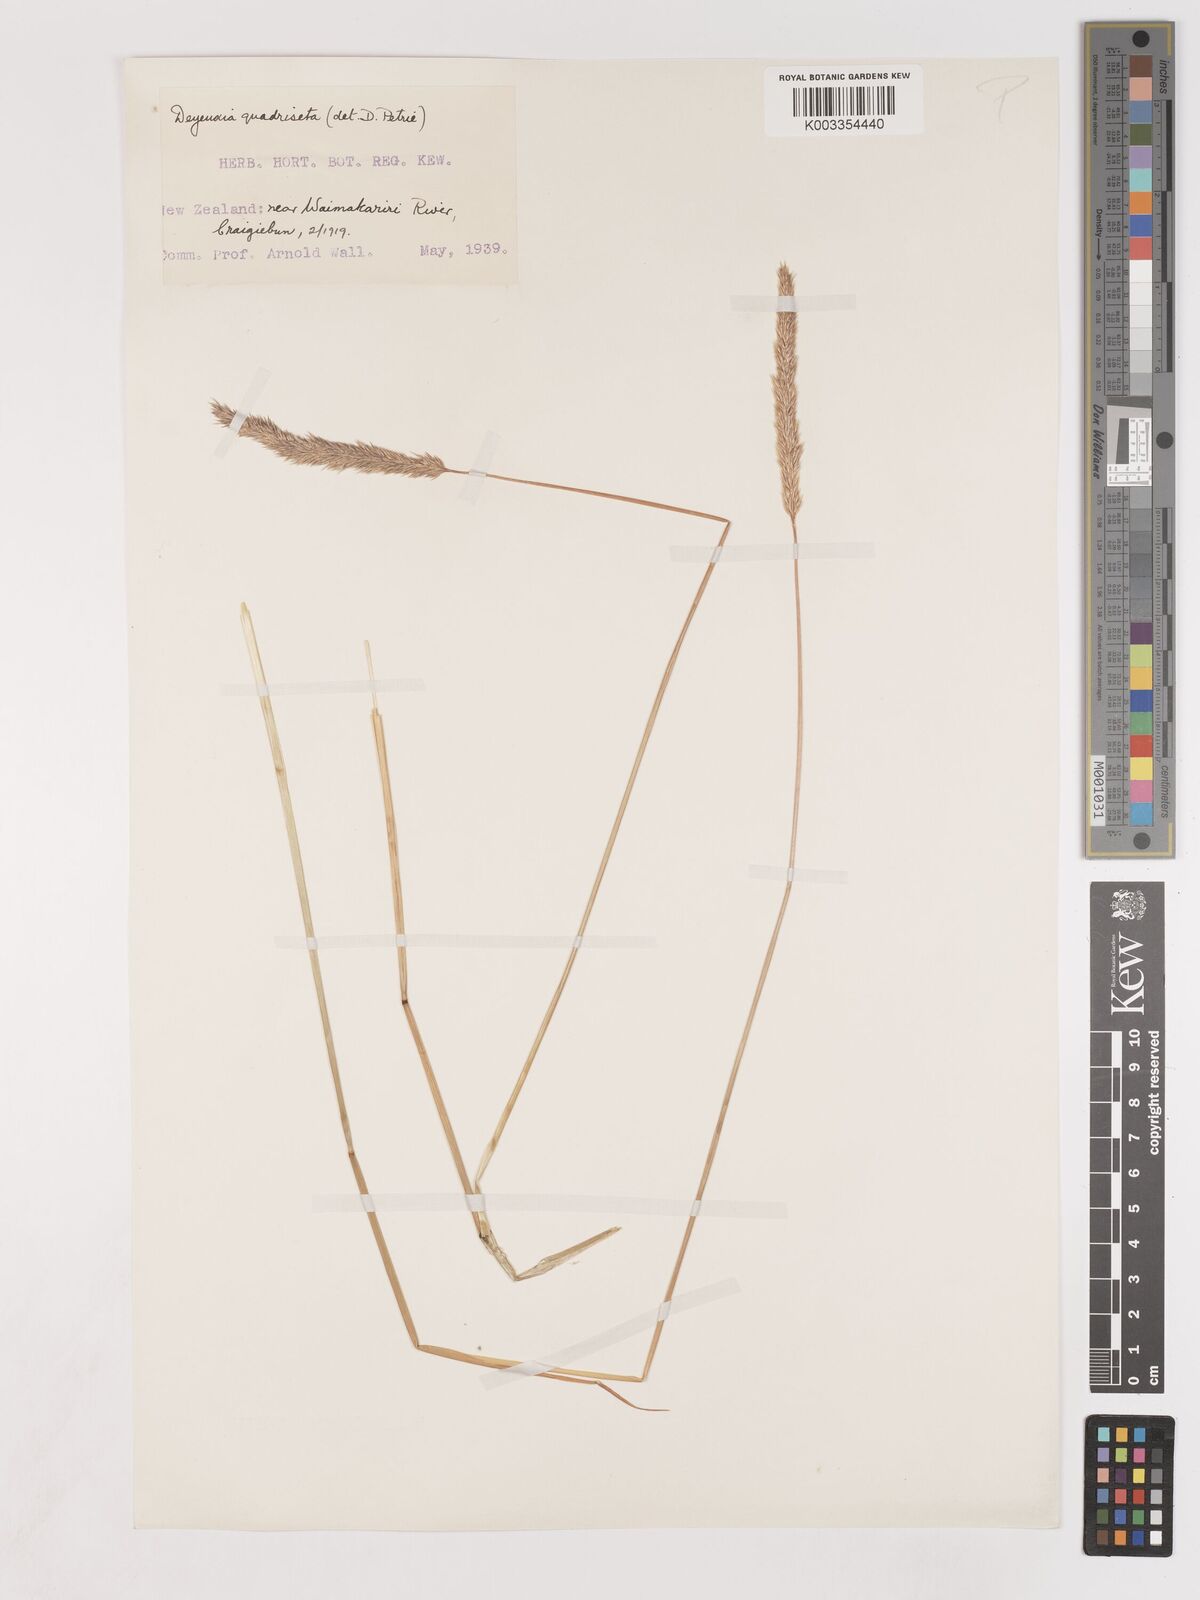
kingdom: Plantae
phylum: Tracheophyta
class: Liliopsida
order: Poales
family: Poaceae
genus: Calamagrostis
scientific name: Calamagrostis quadriseta
